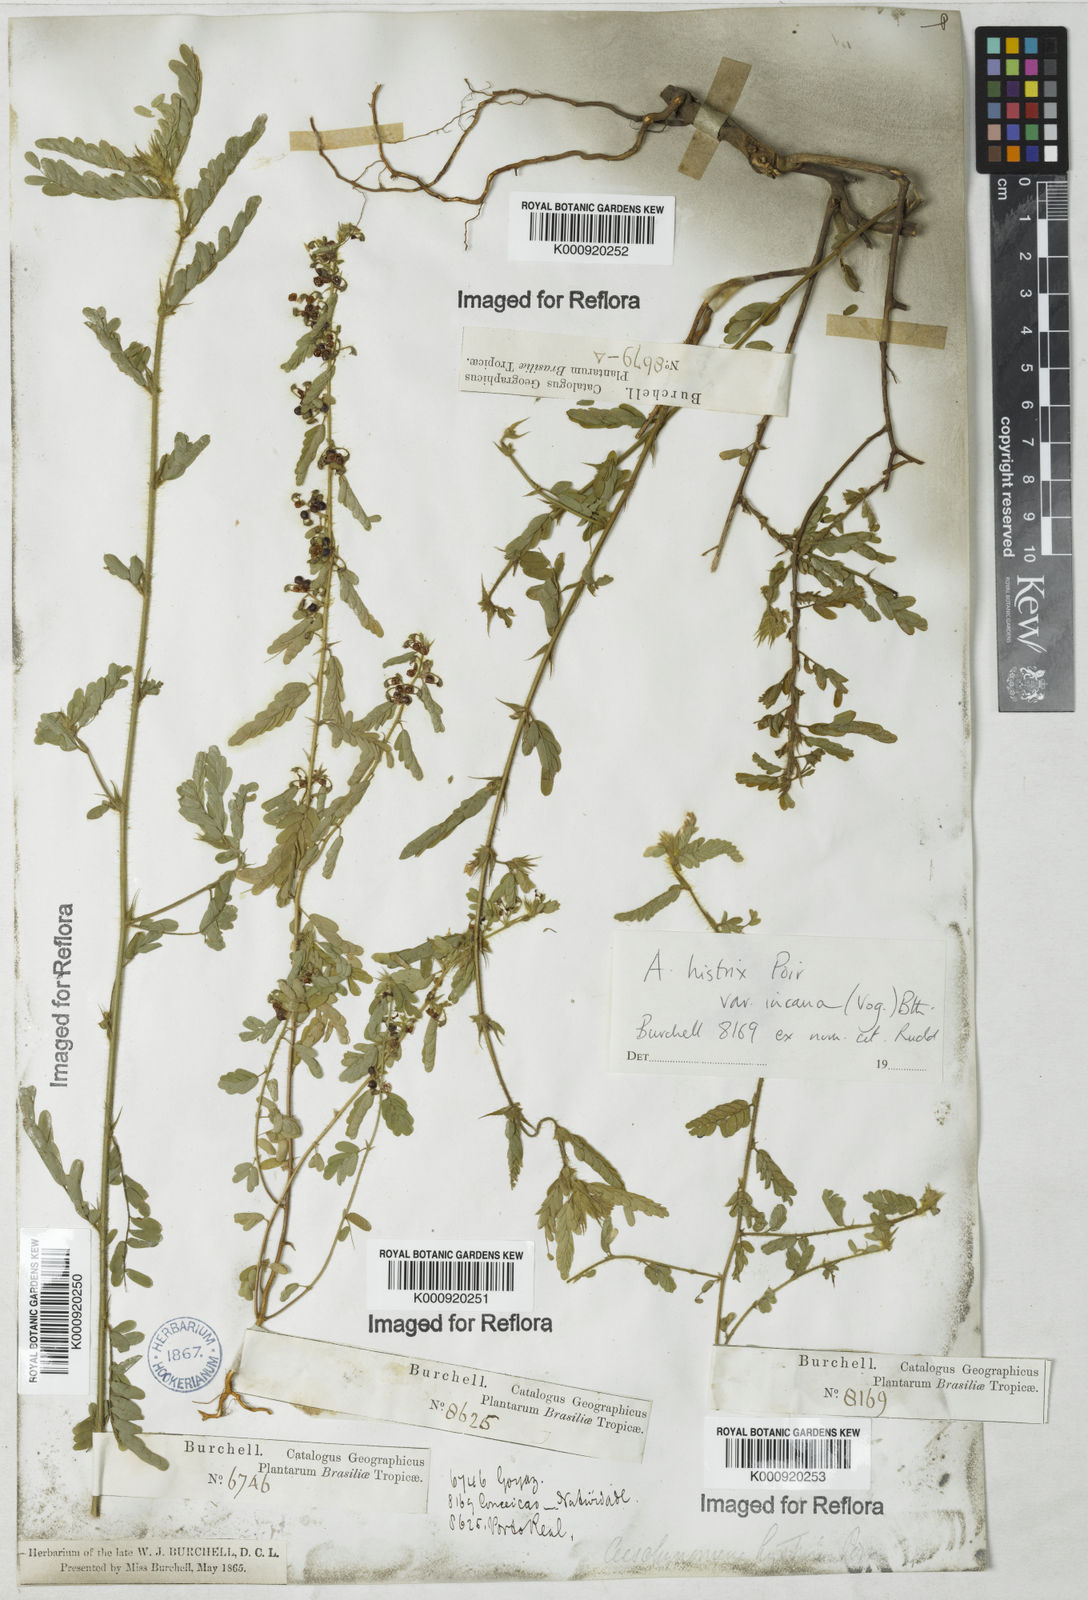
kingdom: Plantae
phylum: Tracheophyta
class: Magnoliopsida
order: Fabales
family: Fabaceae
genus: Ctenodon
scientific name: Ctenodon histrix
